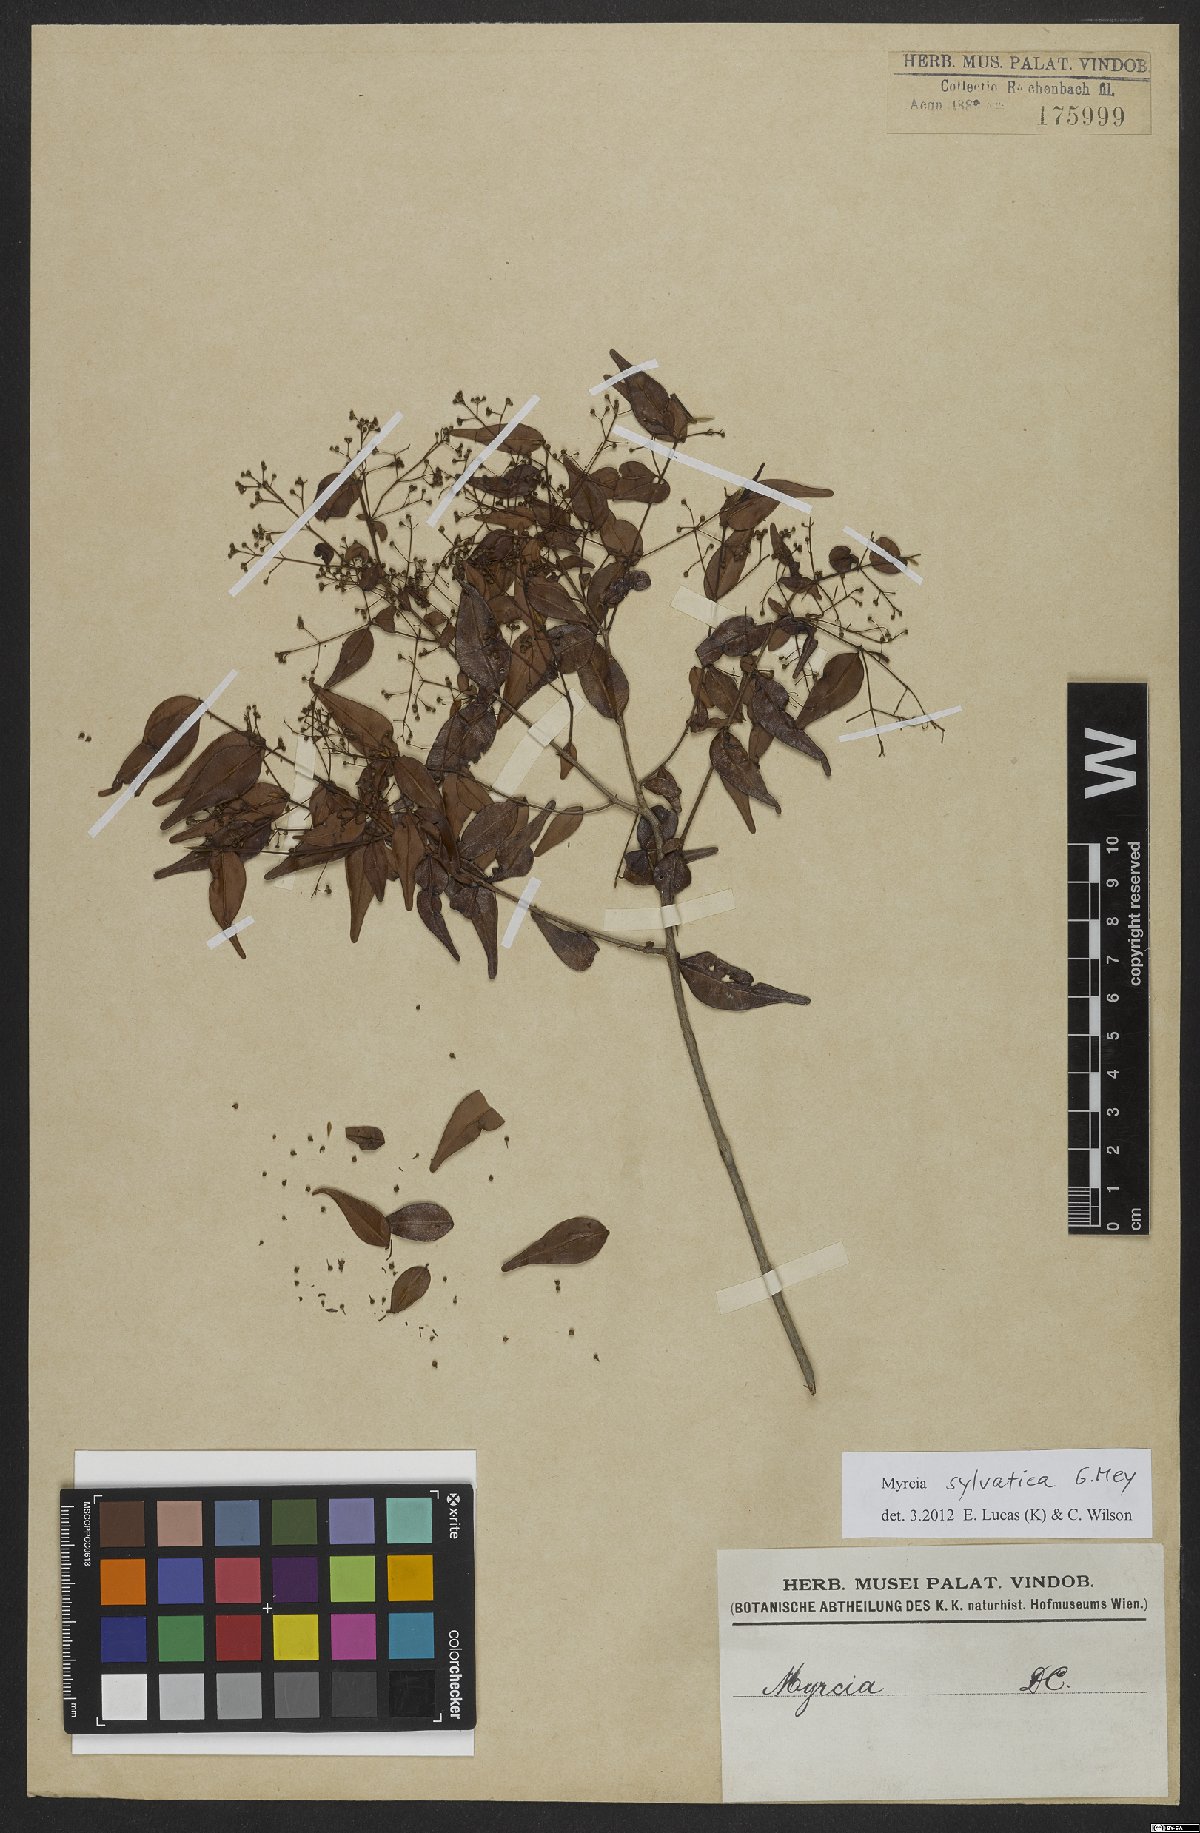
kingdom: Plantae
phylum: Tracheophyta
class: Magnoliopsida
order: Myrtales
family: Myrtaceae
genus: Myrcia
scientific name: Myrcia sylvatica
